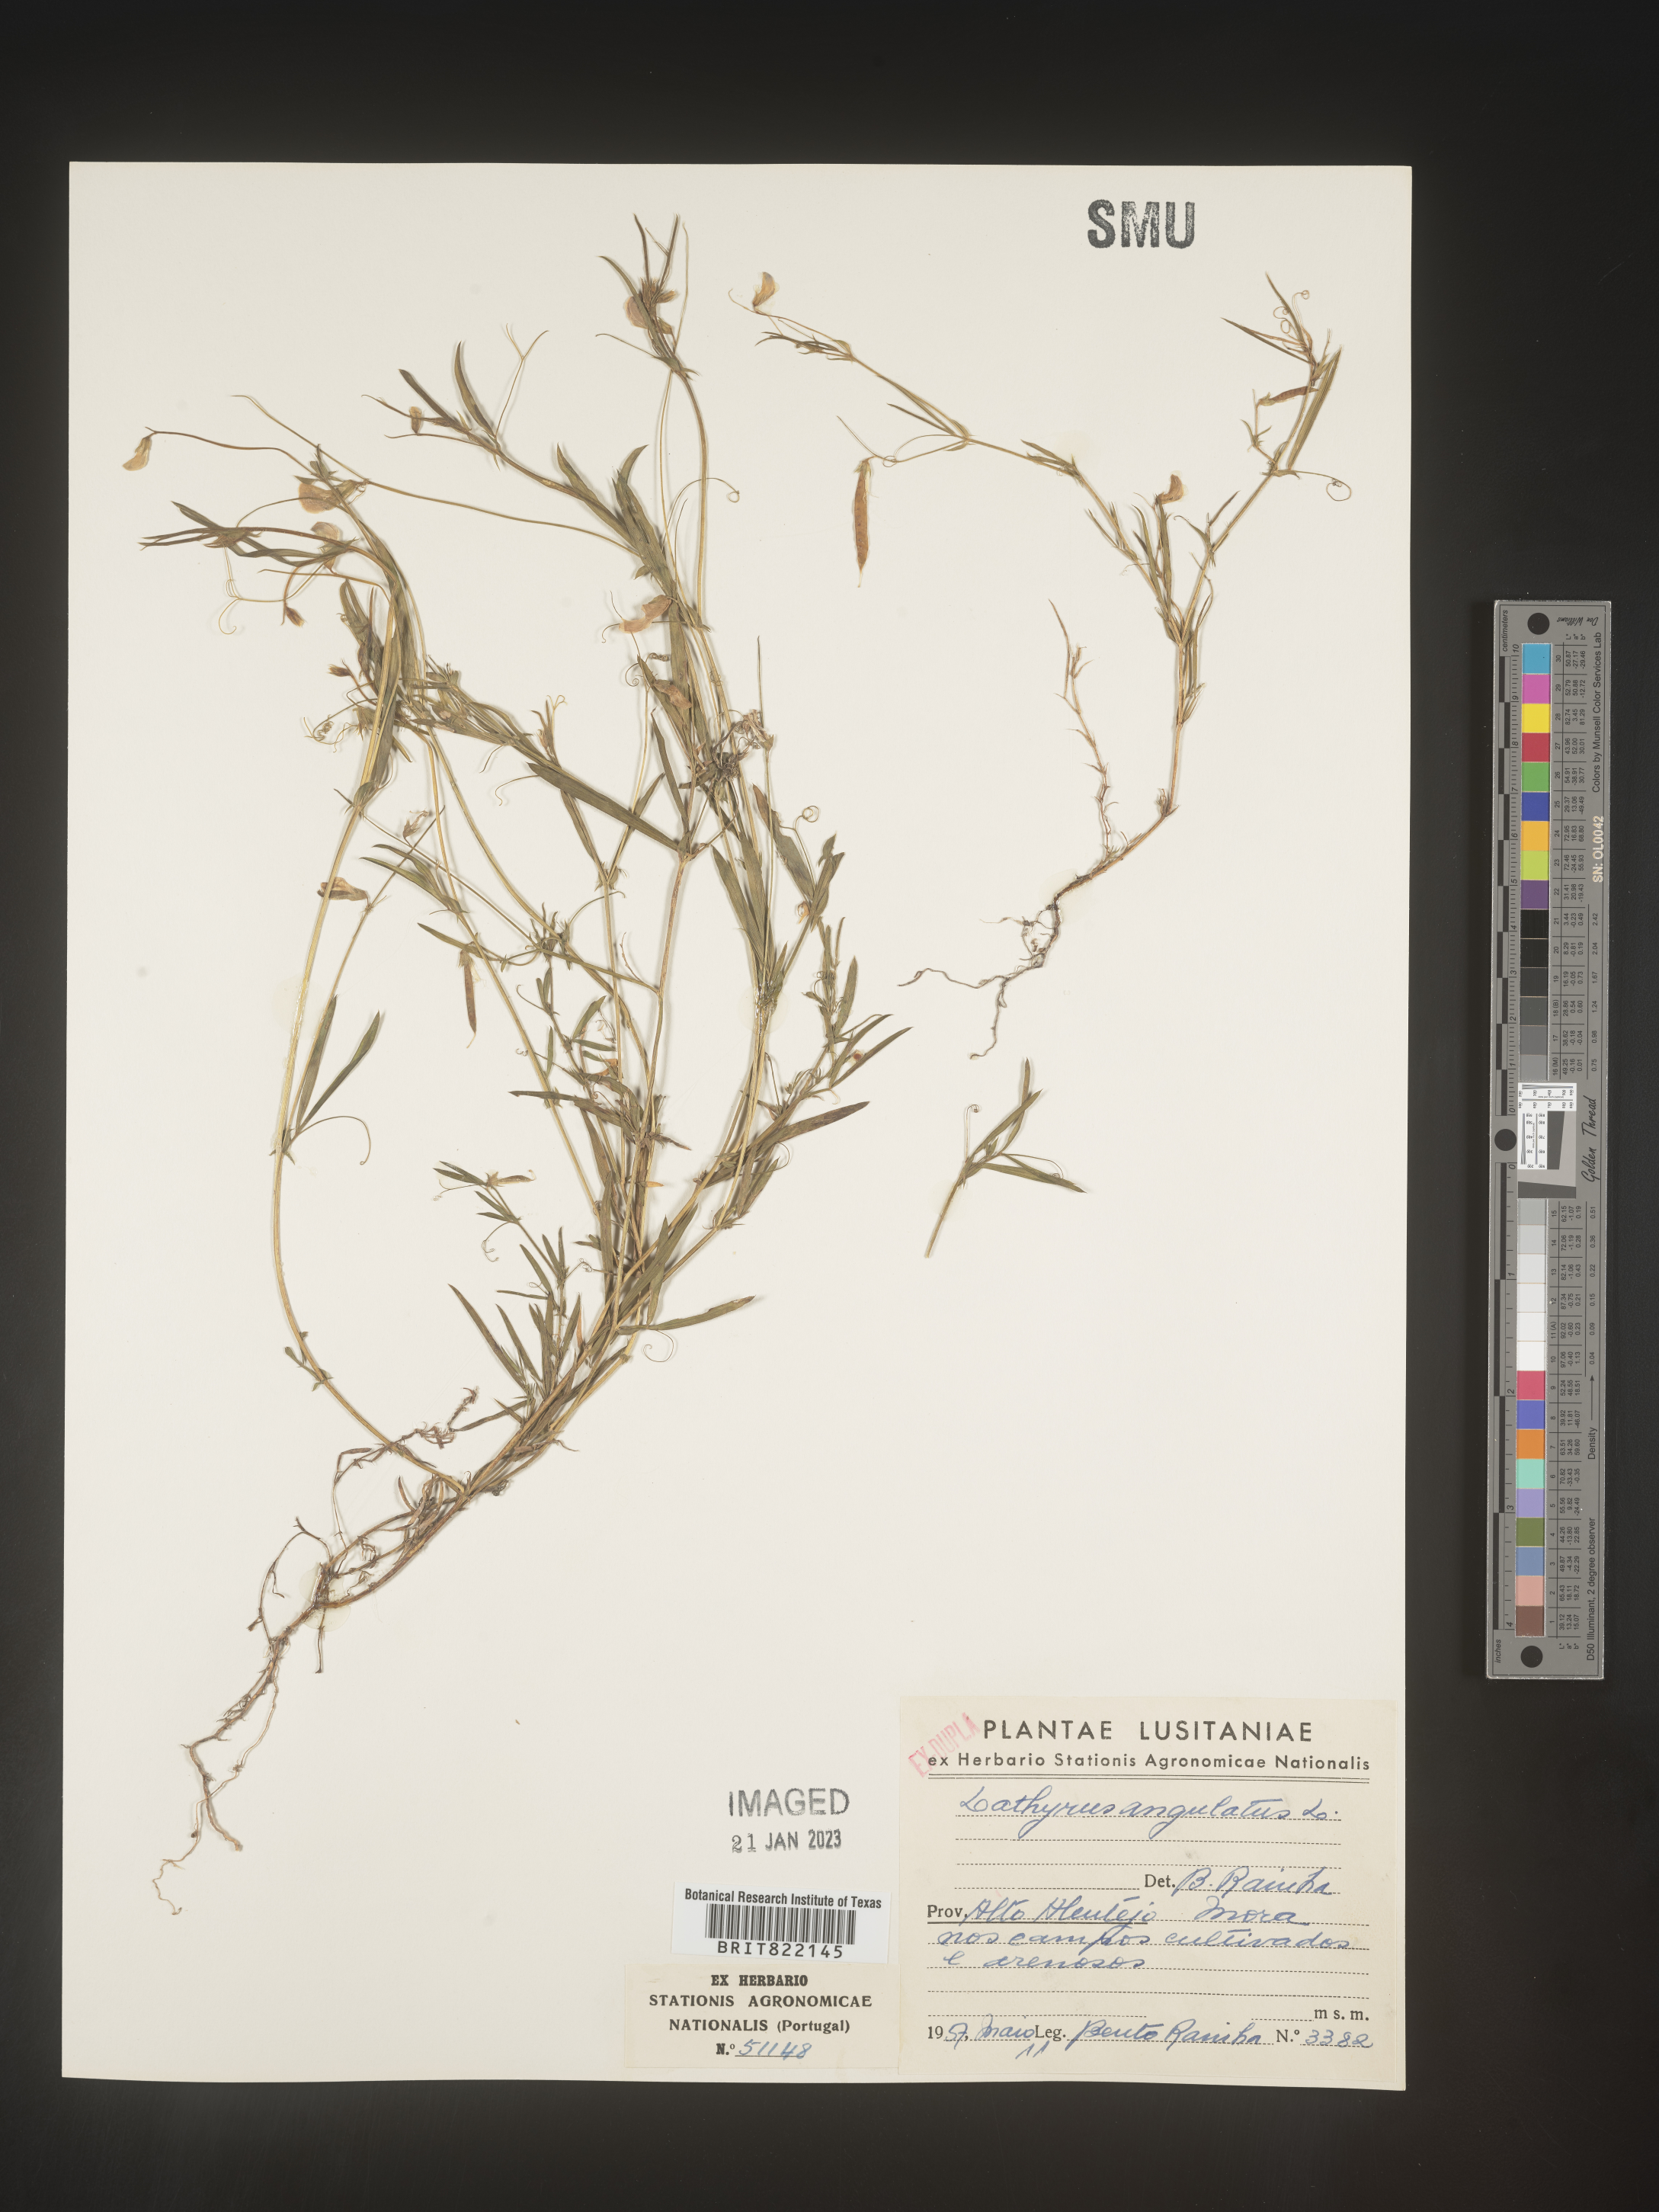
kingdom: Plantae
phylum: Tracheophyta
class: Magnoliopsida
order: Fabales
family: Fabaceae
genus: Lathyrus
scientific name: Lathyrus
